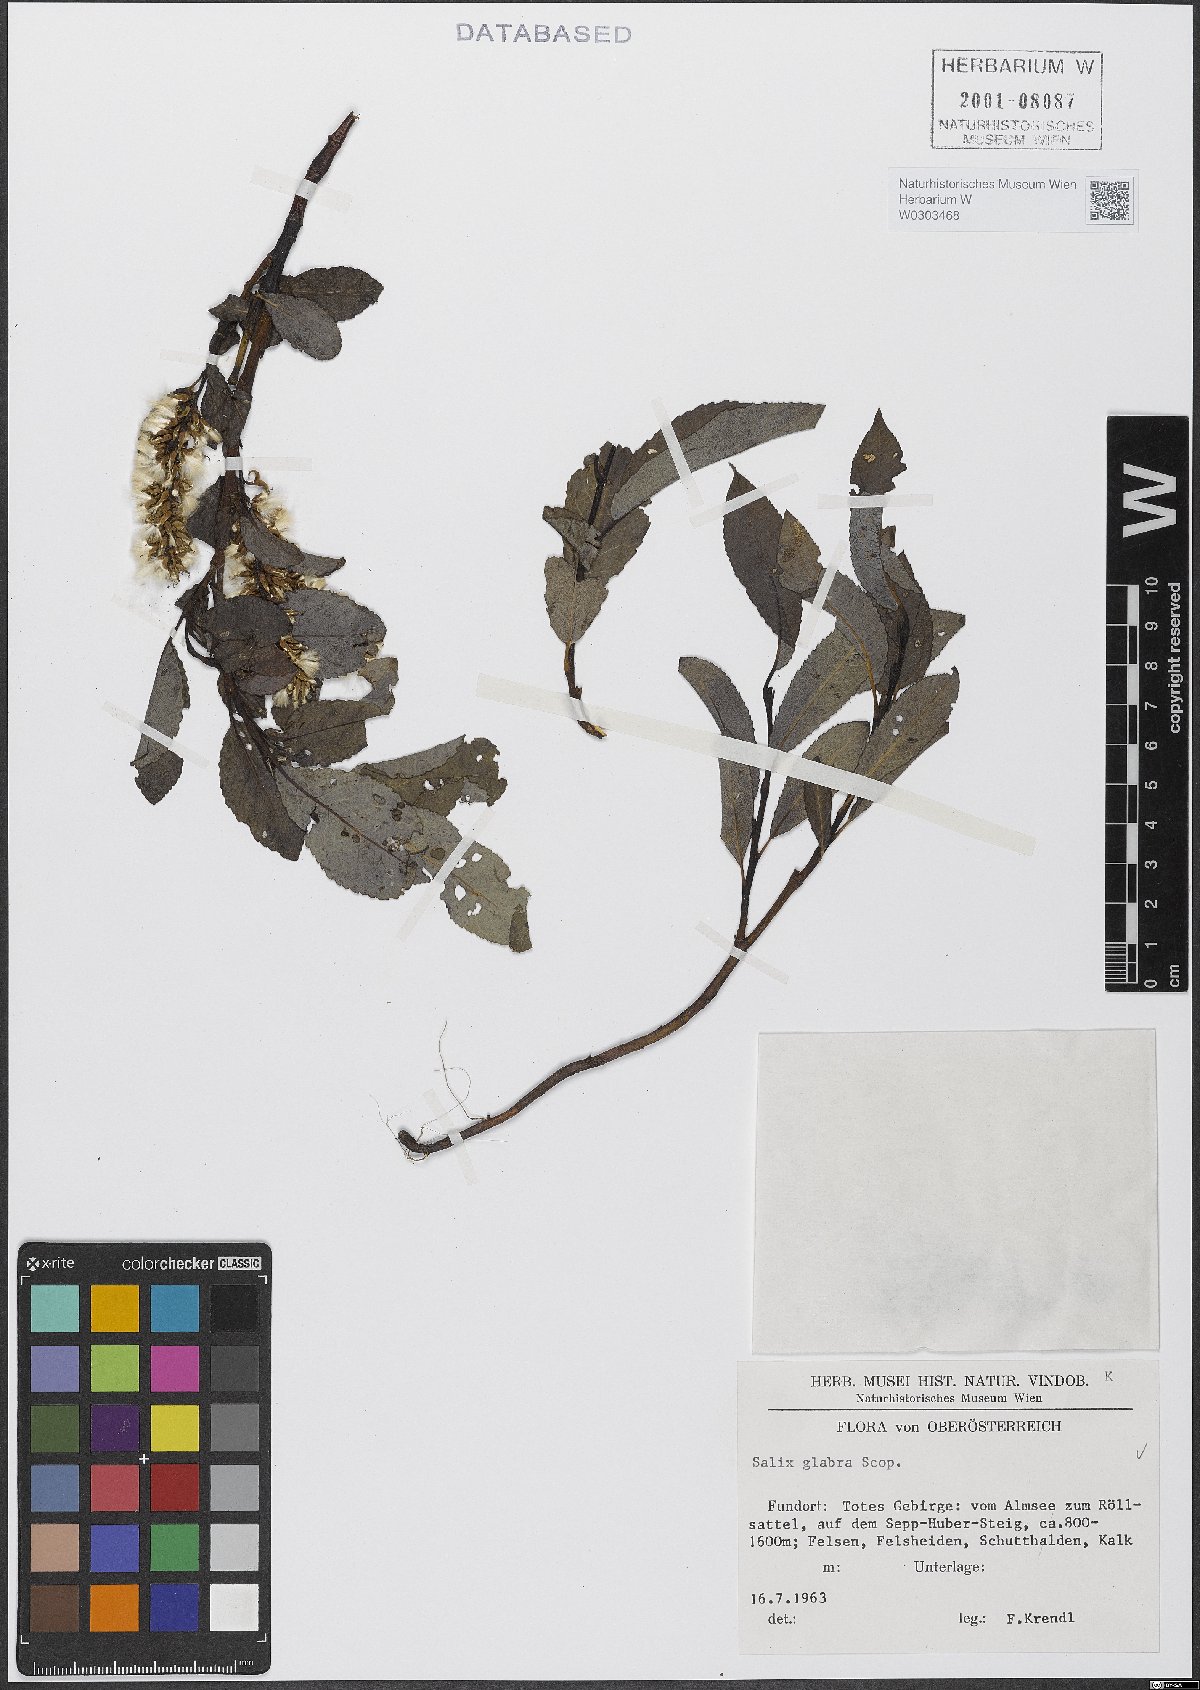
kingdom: Plantae
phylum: Tracheophyta
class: Magnoliopsida
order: Malpighiales
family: Salicaceae
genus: Salix
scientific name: Salix glabra
